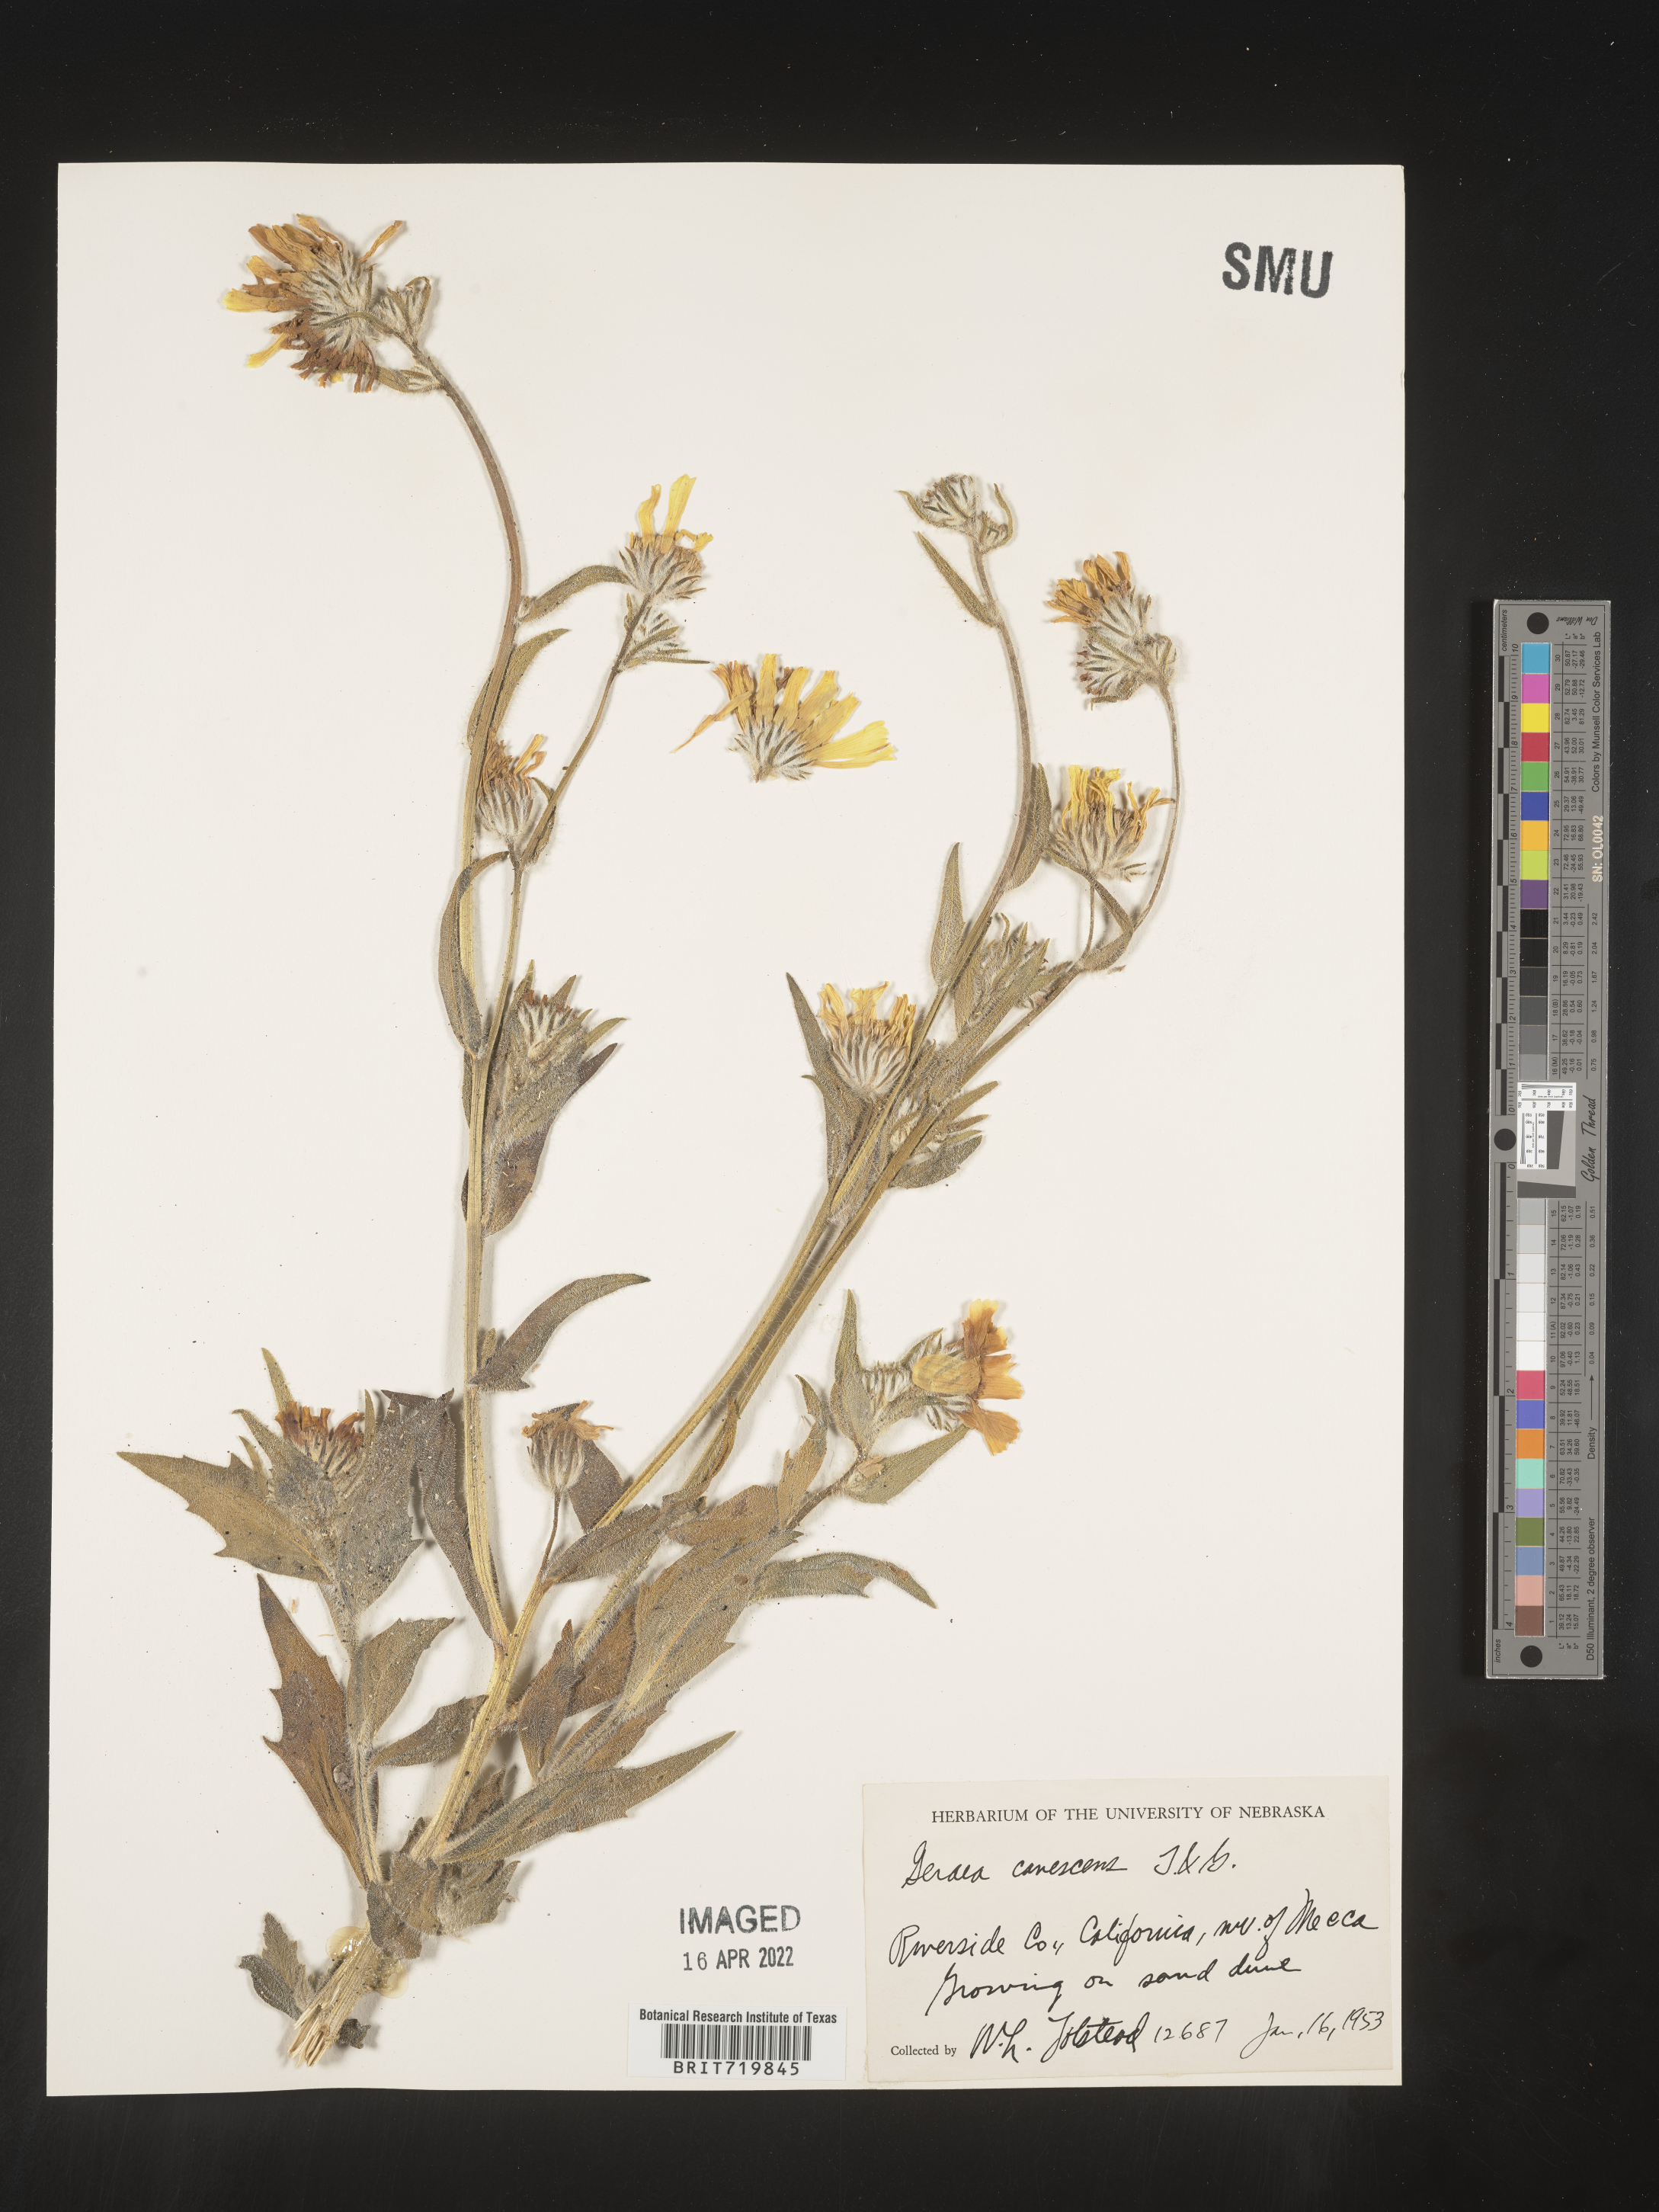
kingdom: Plantae
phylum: Tracheophyta
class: Magnoliopsida
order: Asterales
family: Asteraceae
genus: Geraea
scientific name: Geraea
